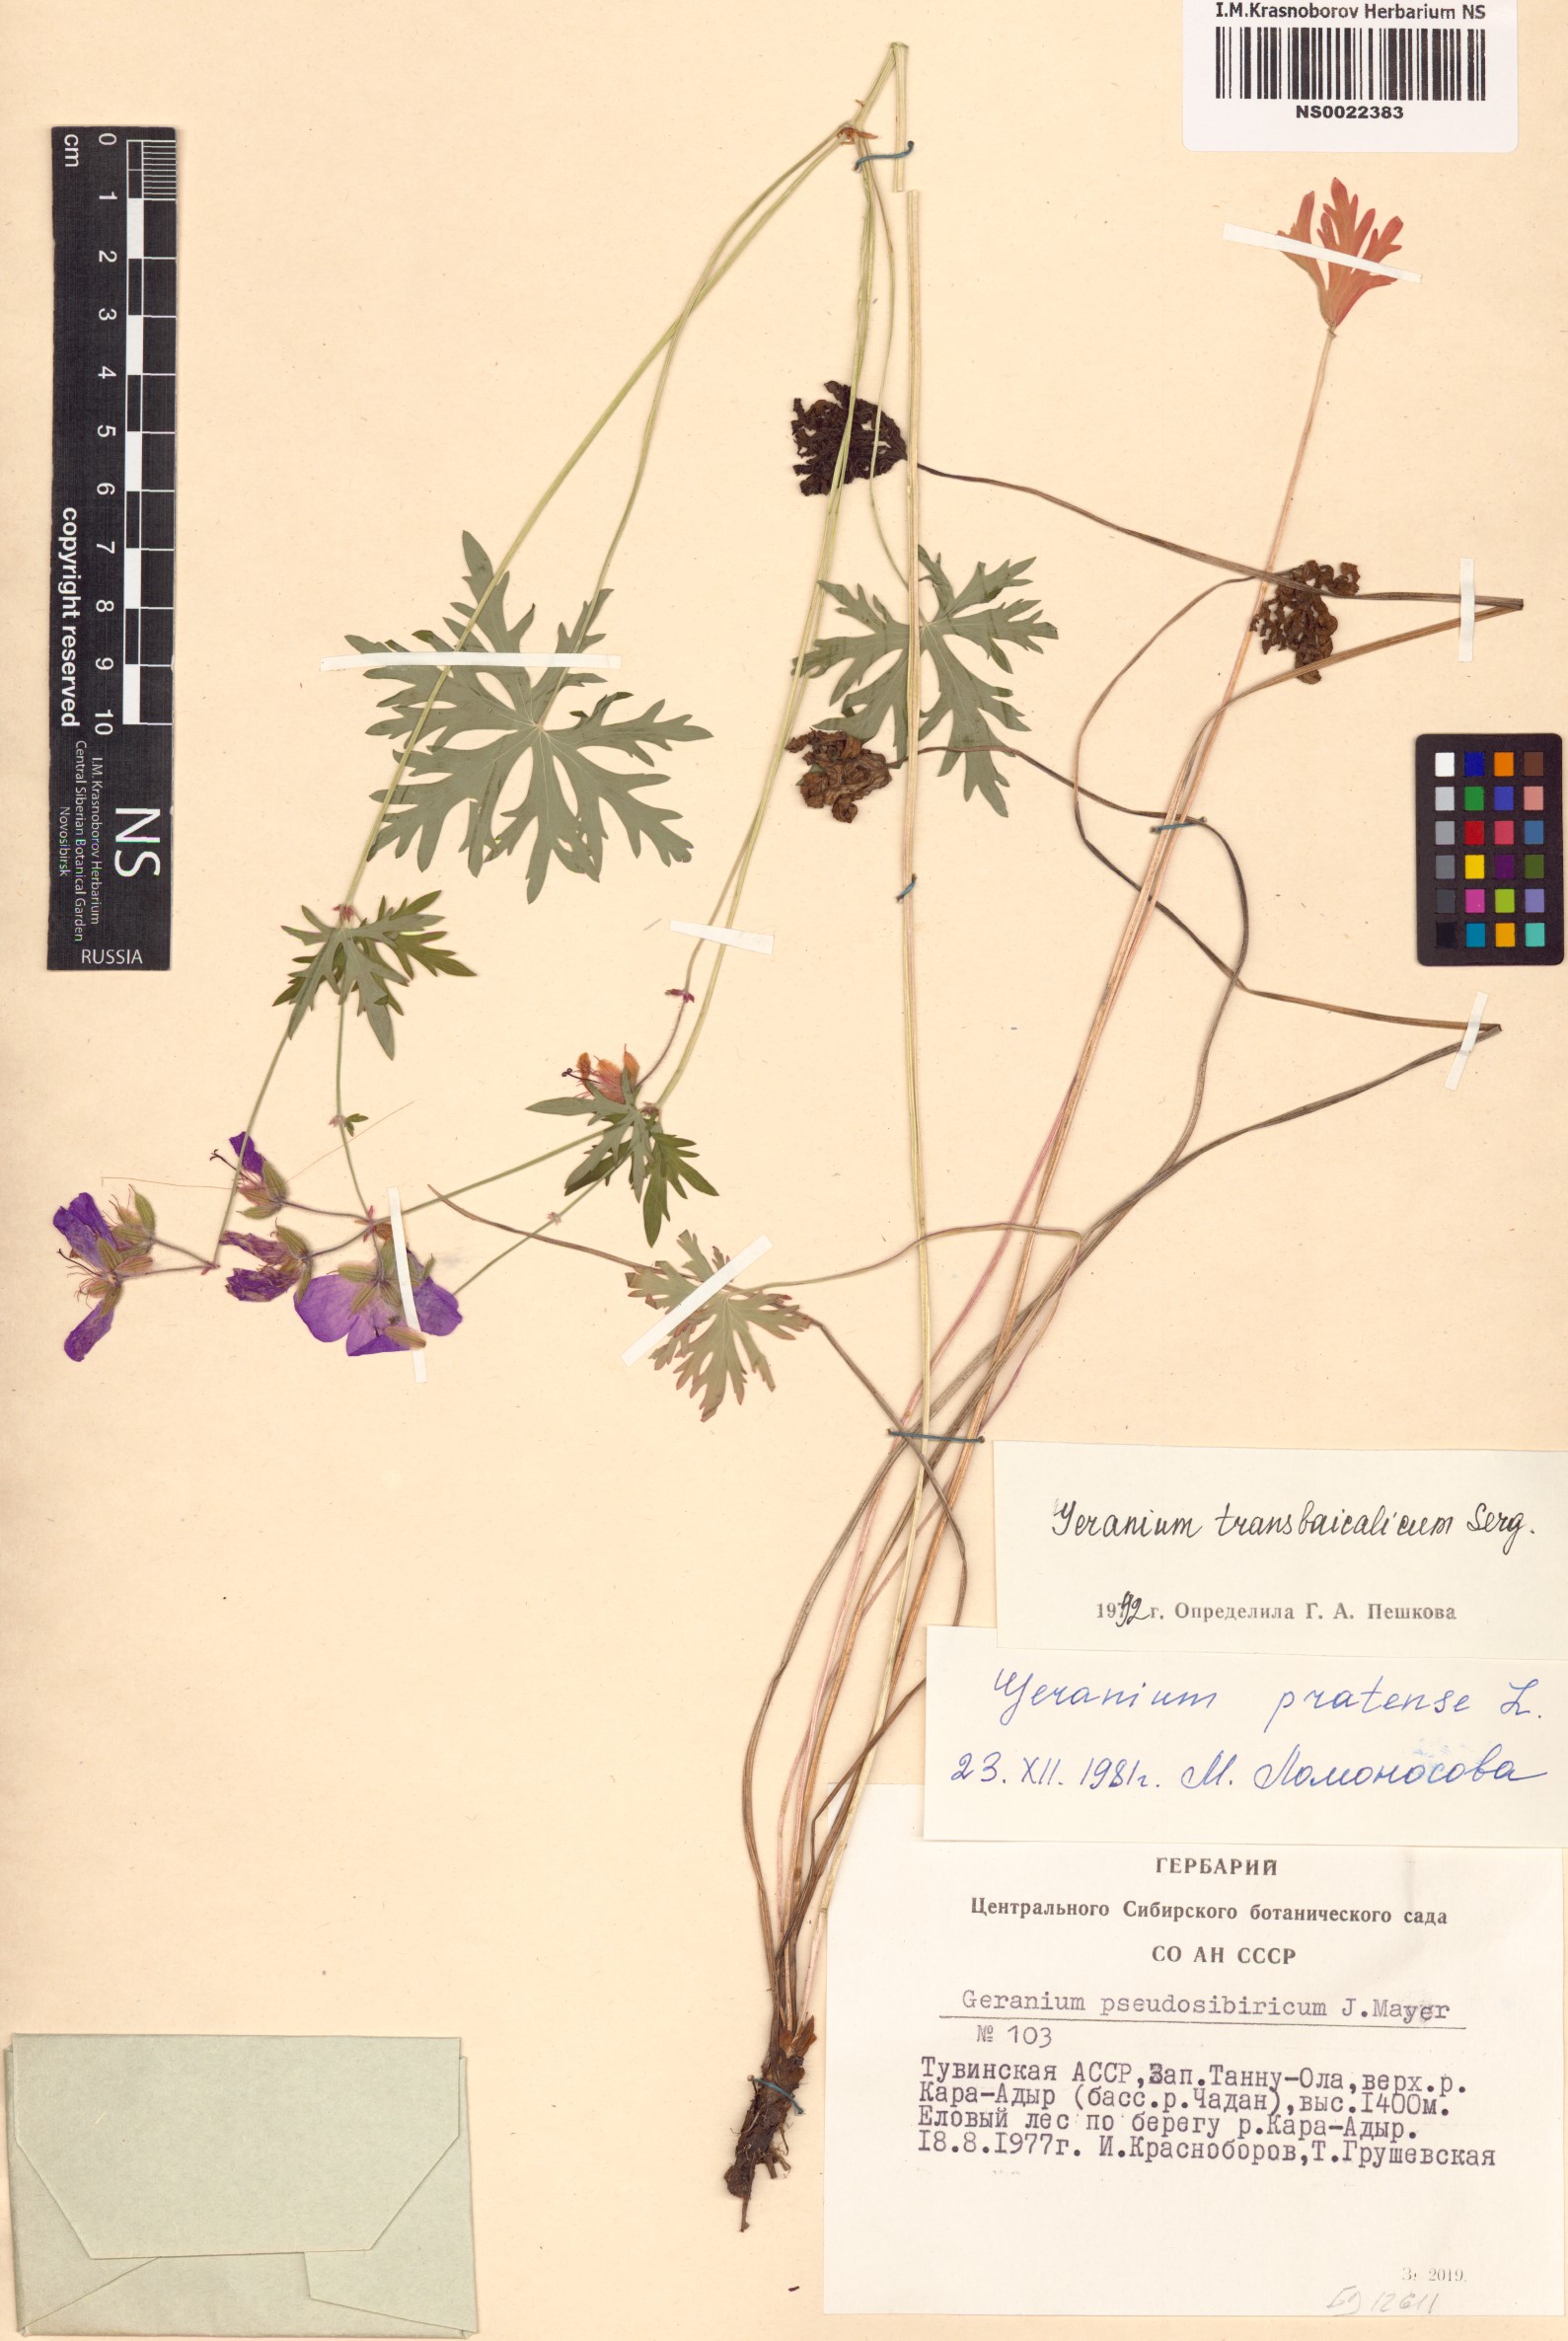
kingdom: Plantae
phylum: Tracheophyta
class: Magnoliopsida
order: Geraniales
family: Geraniaceae
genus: Geranium
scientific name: Geranium pratense
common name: Meadow crane's-bill
